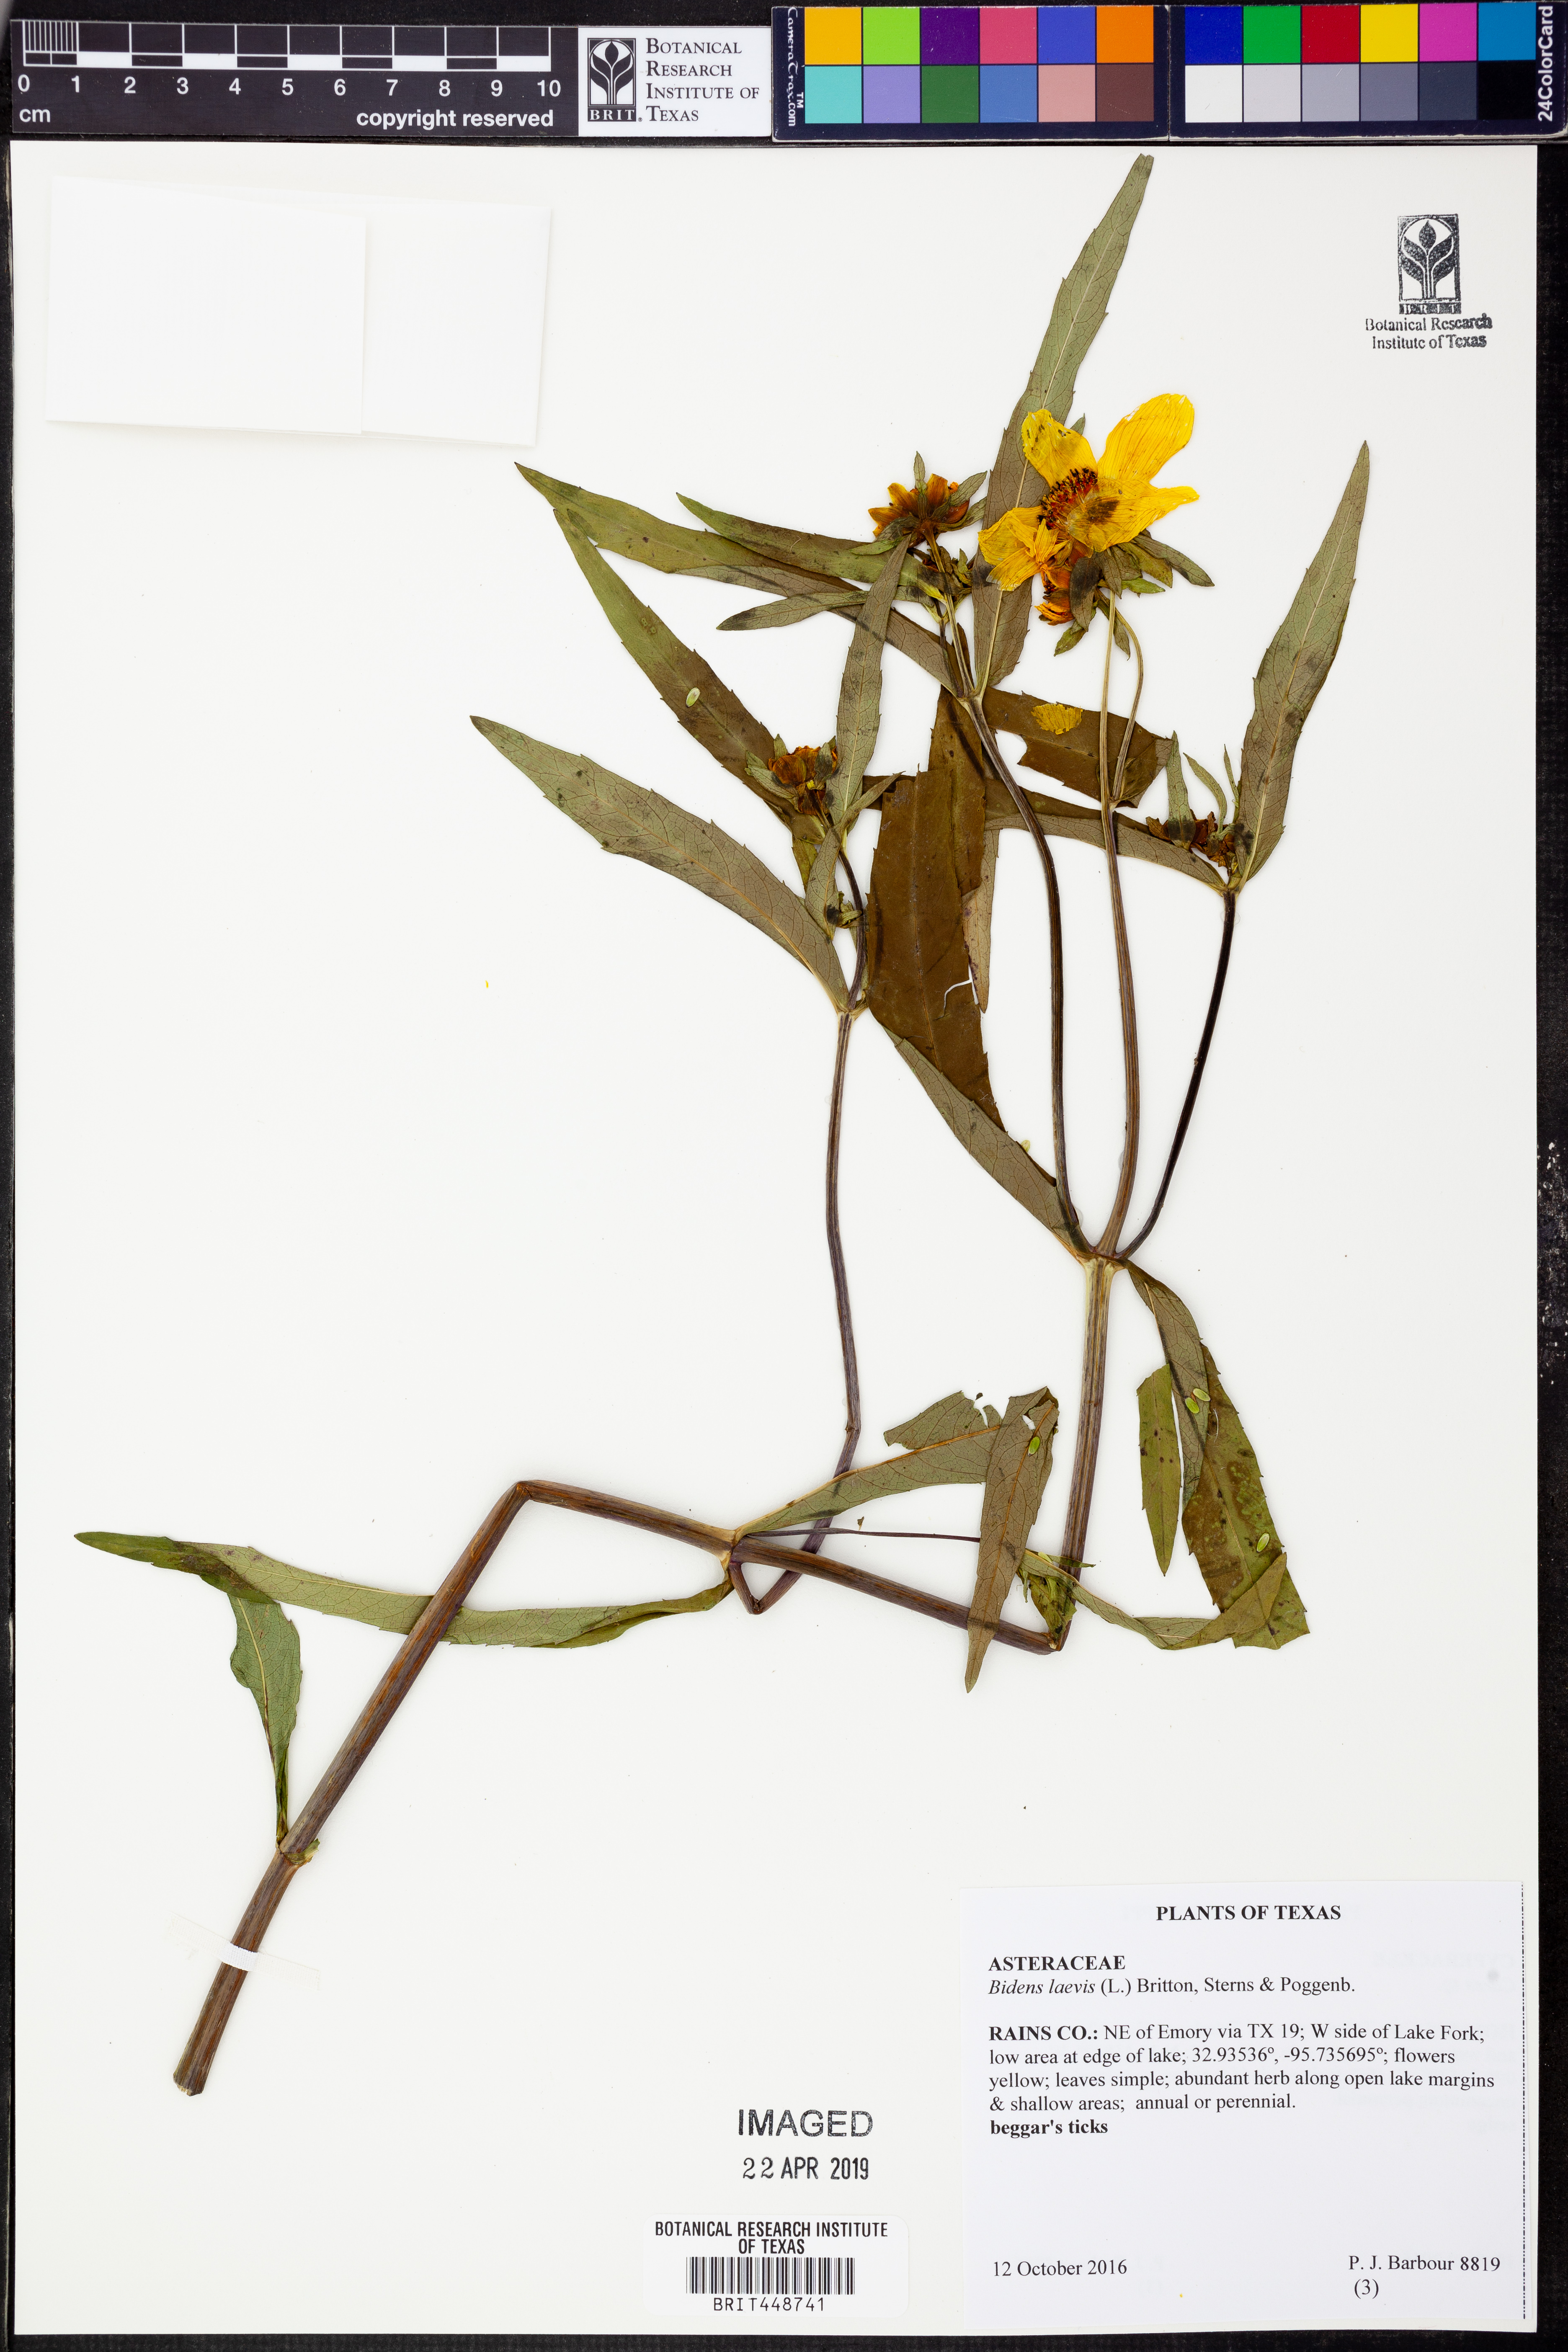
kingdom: Plantae
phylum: Tracheophyta
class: Magnoliopsida
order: Asterales
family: Asteraceae
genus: Bidens
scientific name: Bidens laevis
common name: Larger bur-marigold
